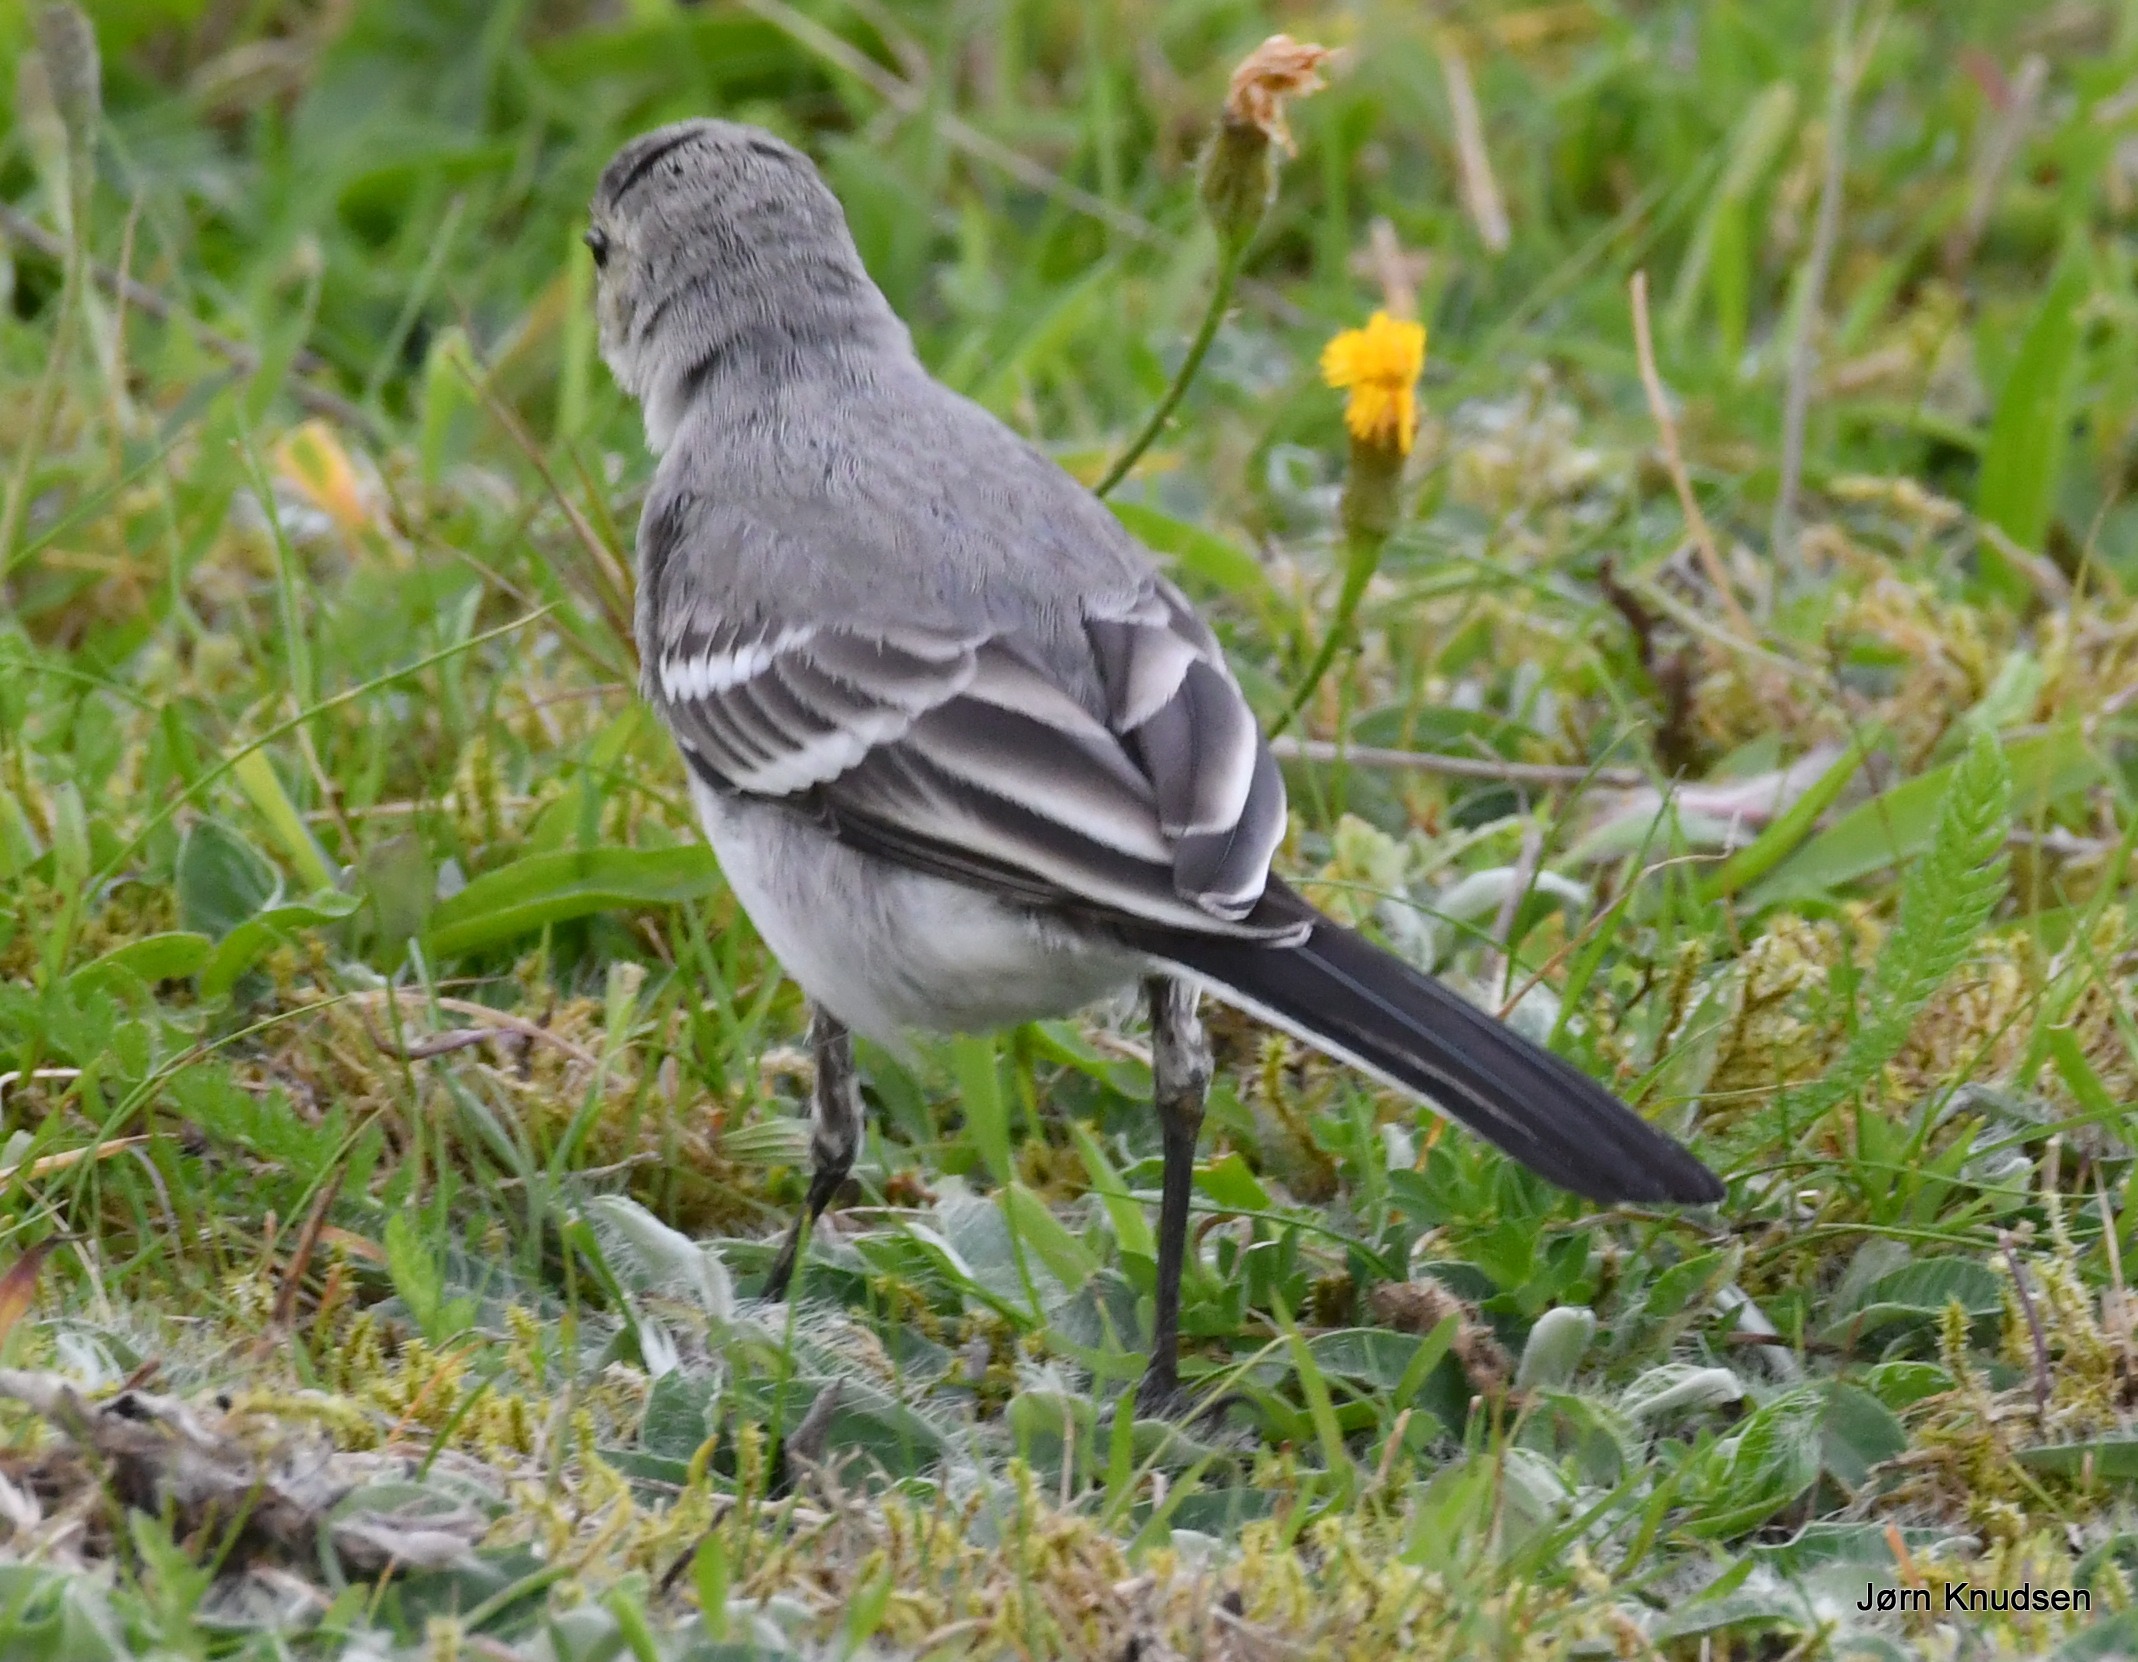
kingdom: Animalia
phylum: Chordata
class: Aves
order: Passeriformes
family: Motacillidae
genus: Motacilla
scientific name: Motacilla alba
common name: Hvid vipstjert
